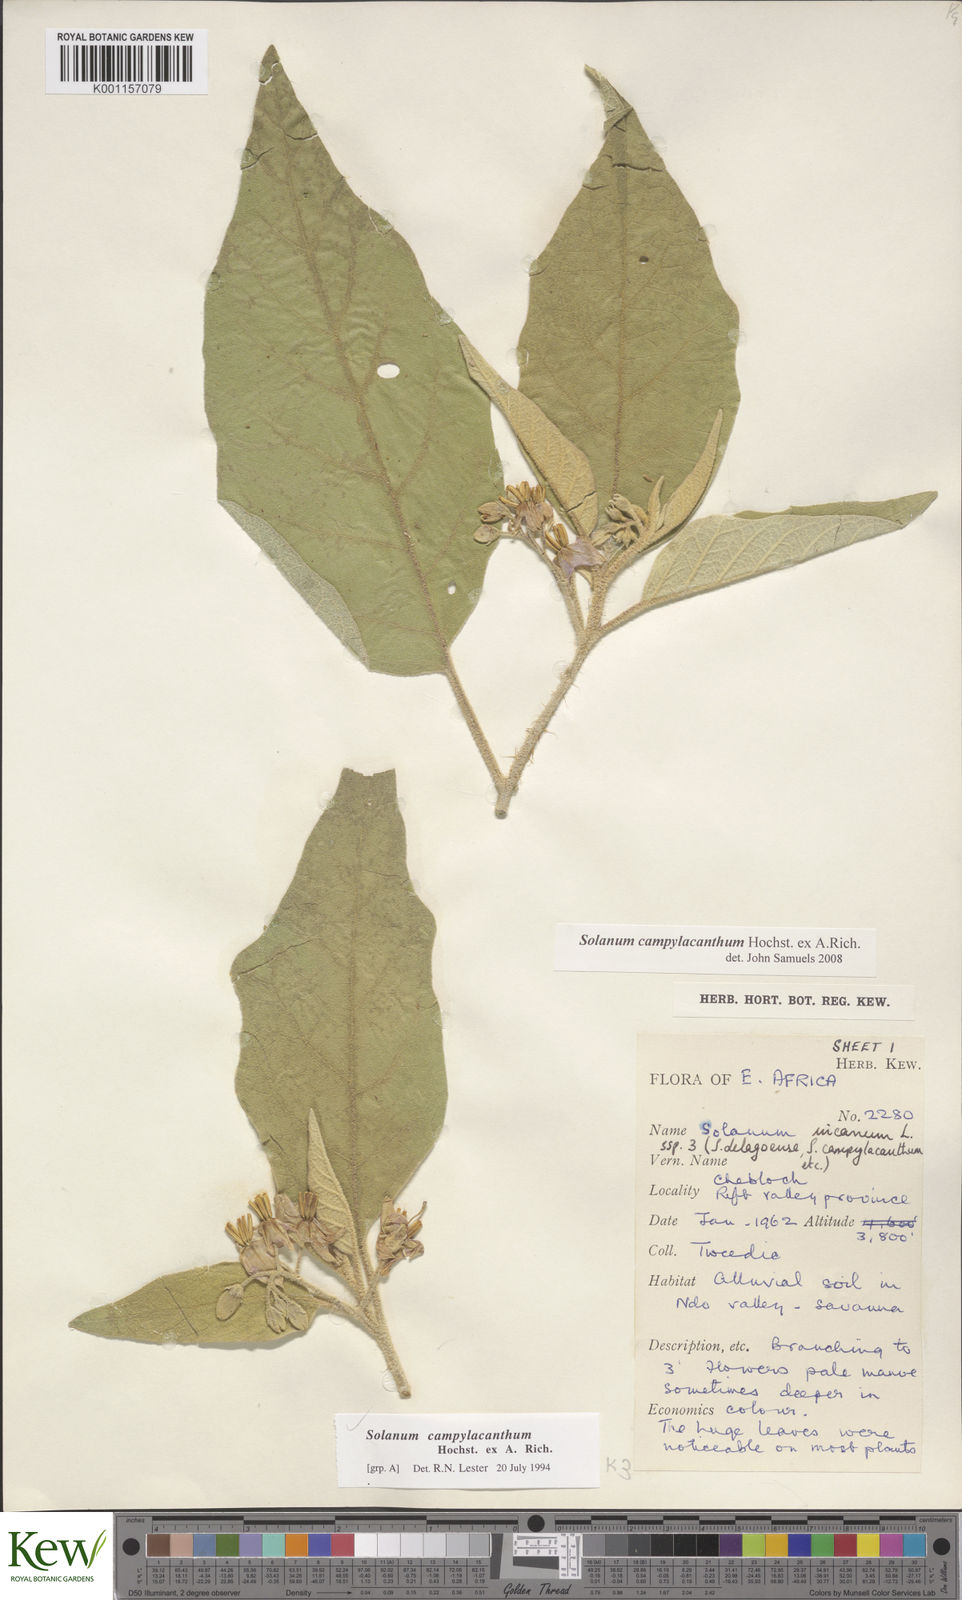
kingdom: Plantae
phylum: Tracheophyta
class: Magnoliopsida
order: Solanales
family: Solanaceae
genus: Solanum
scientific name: Solanum campylacanthum
